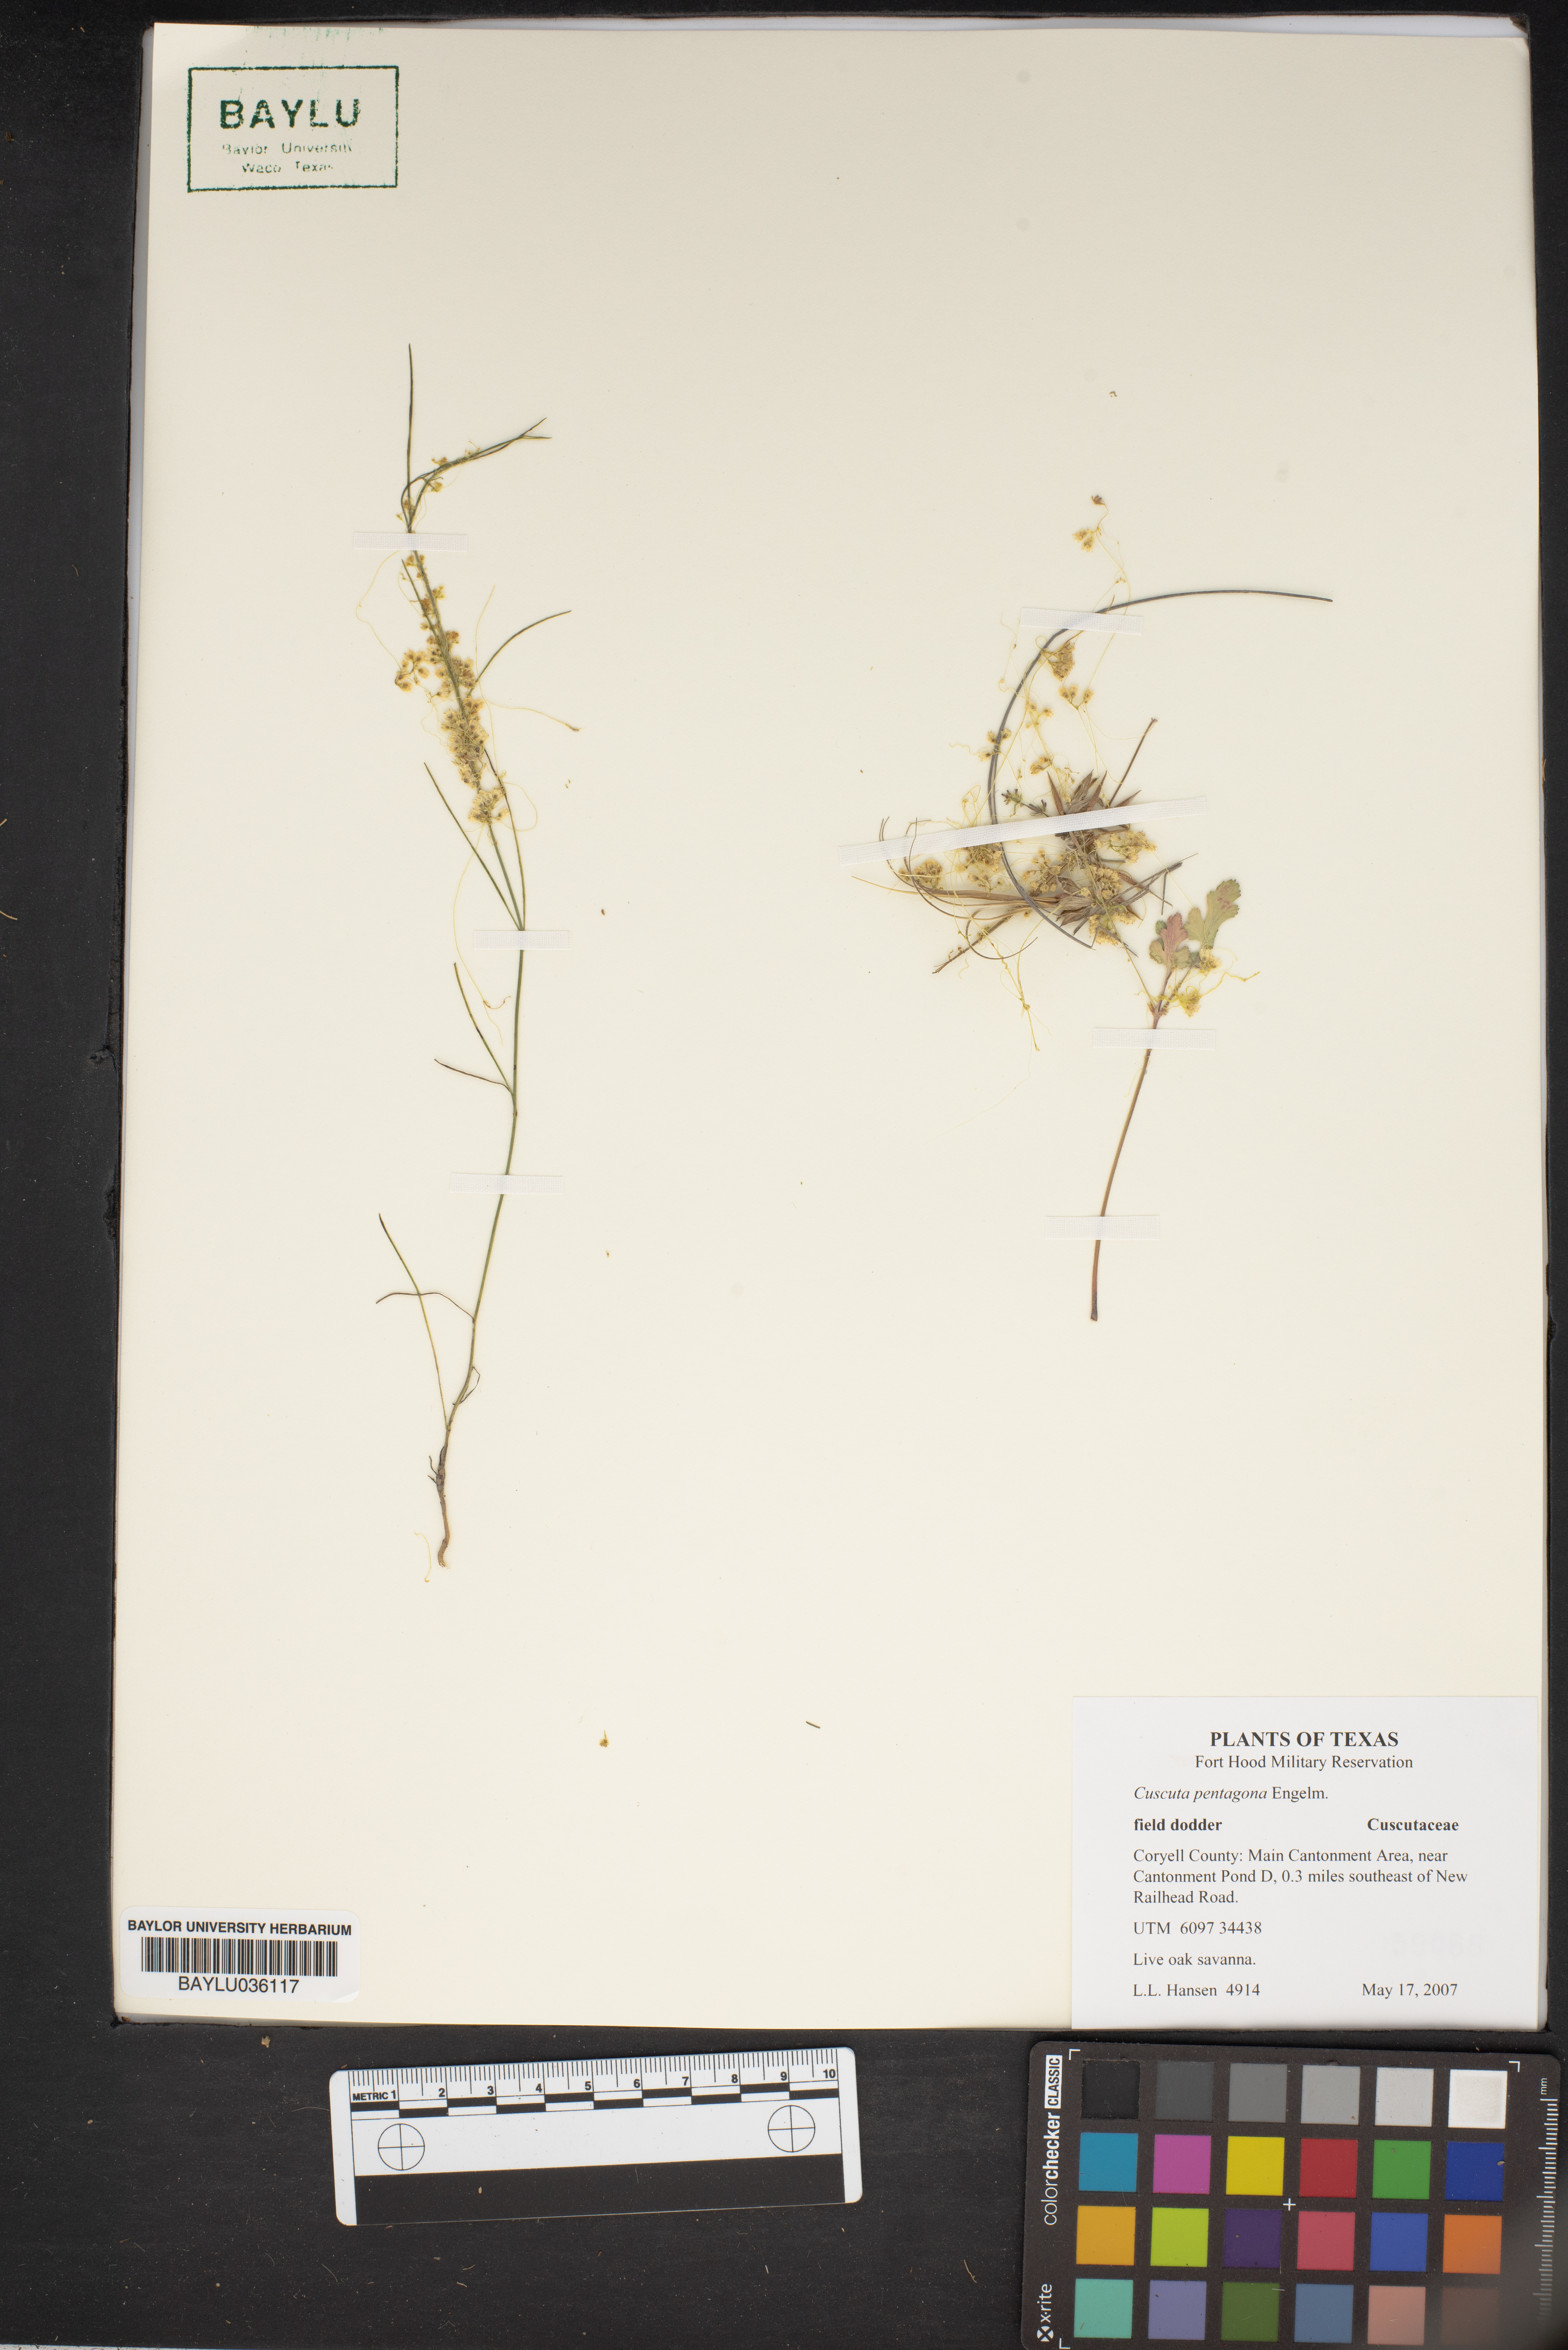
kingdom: Plantae
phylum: Tracheophyta
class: Magnoliopsida
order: Solanales
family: Convolvulaceae
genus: Cuscuta
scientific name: Cuscuta pentagona
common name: Fiveangled dodder
